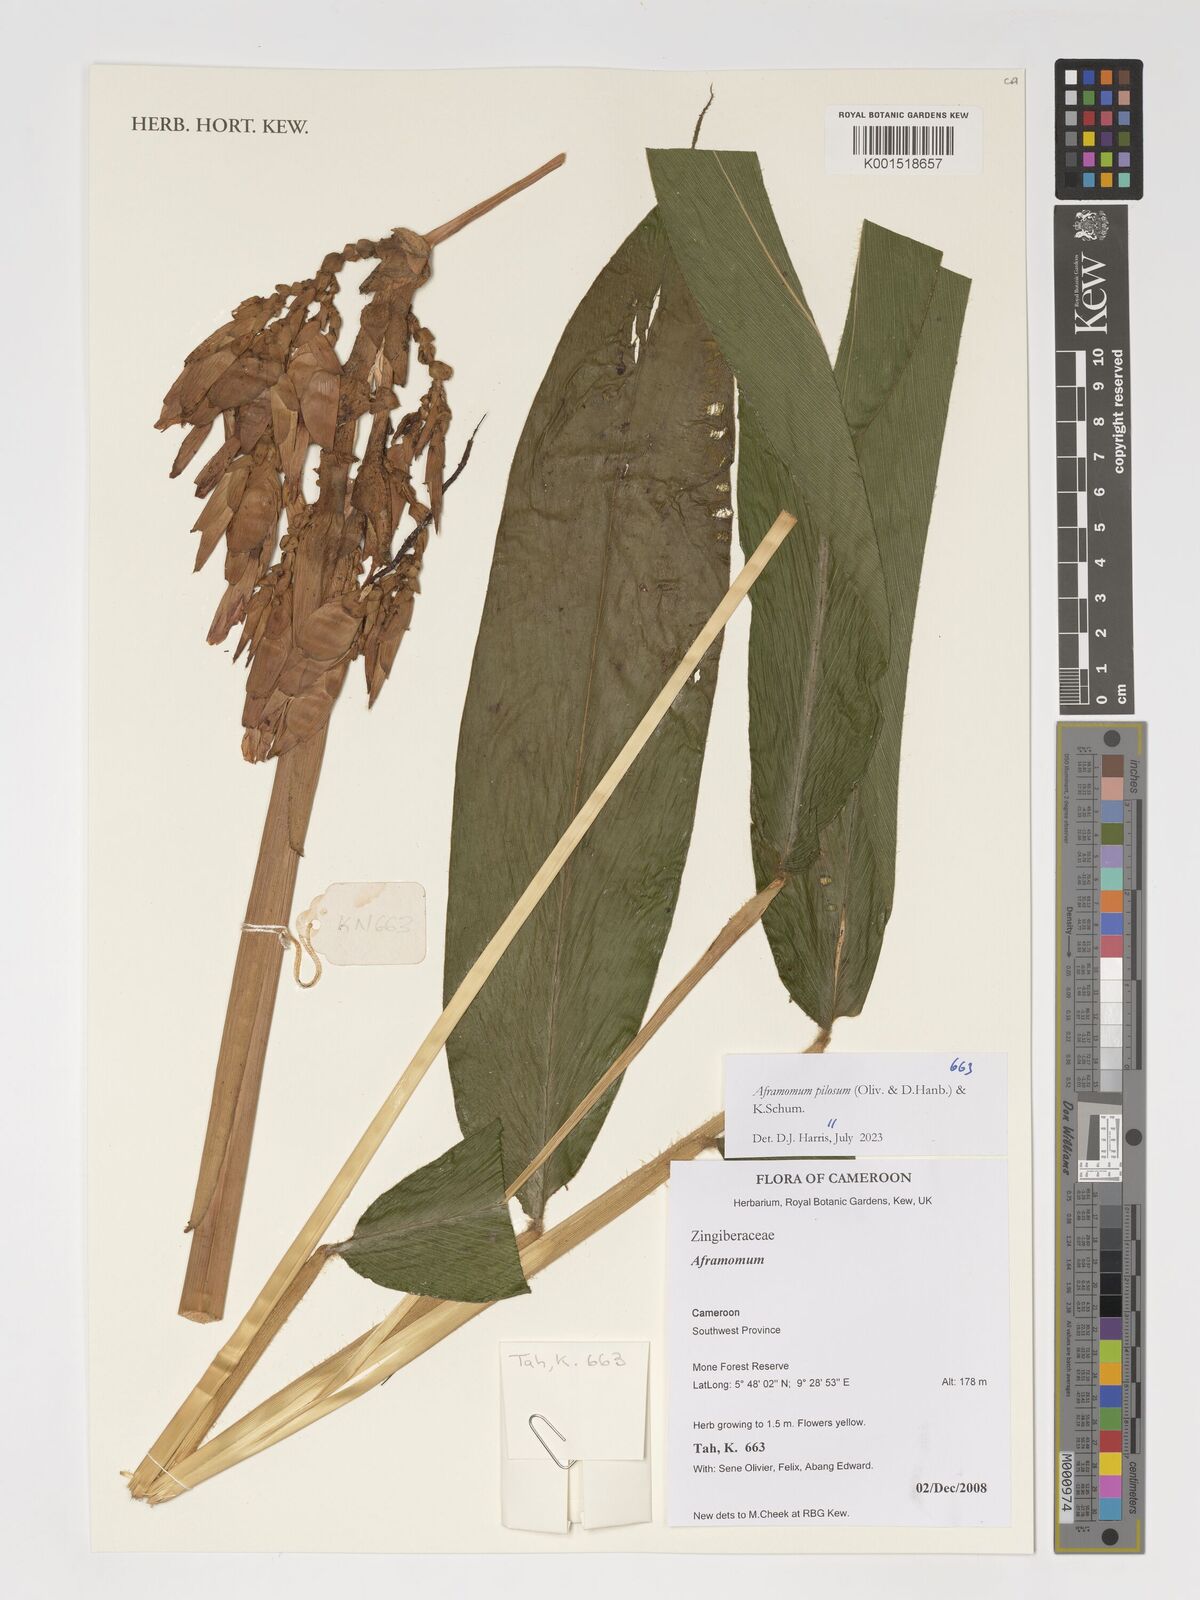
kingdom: Plantae
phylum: Tracheophyta
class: Liliopsida
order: Zingiberales
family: Zingiberaceae
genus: Aframomum
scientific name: Aframomum pilosum
